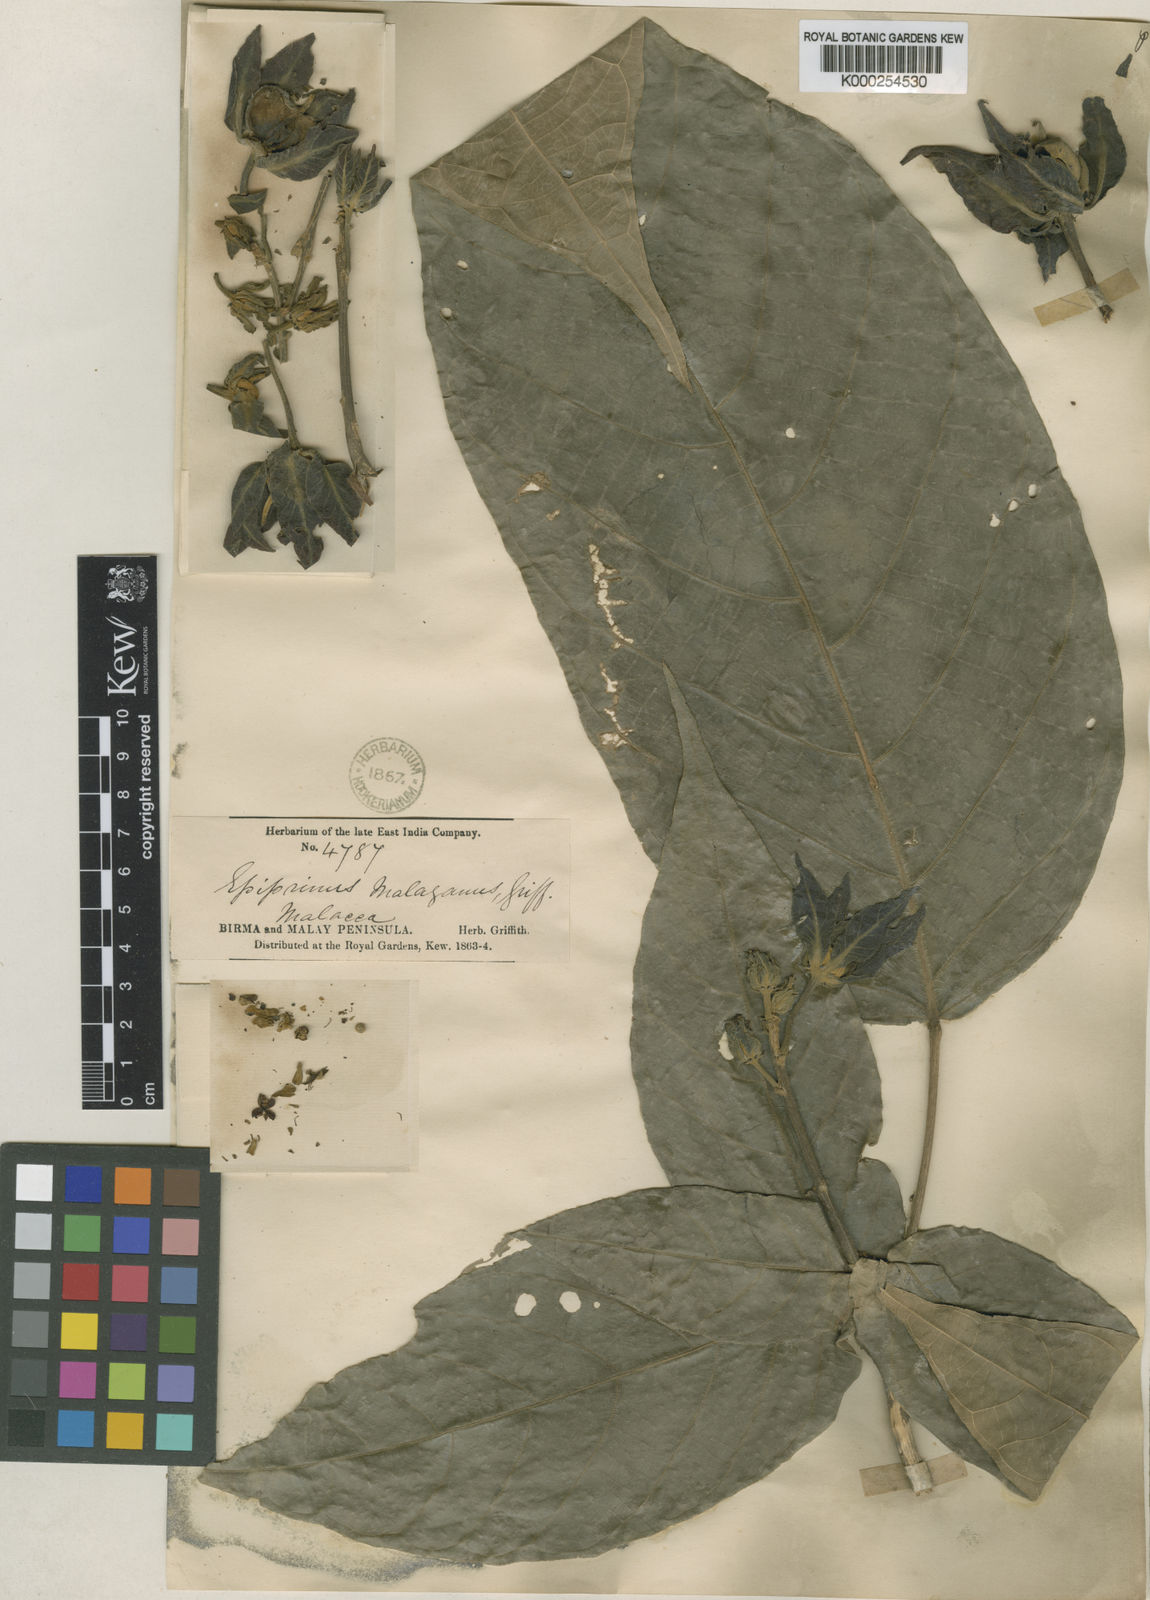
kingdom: Plantae
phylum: Tracheophyta
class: Magnoliopsida
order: Malpighiales
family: Euphorbiaceae
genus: Epiprinus
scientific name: Epiprinus malayanus
